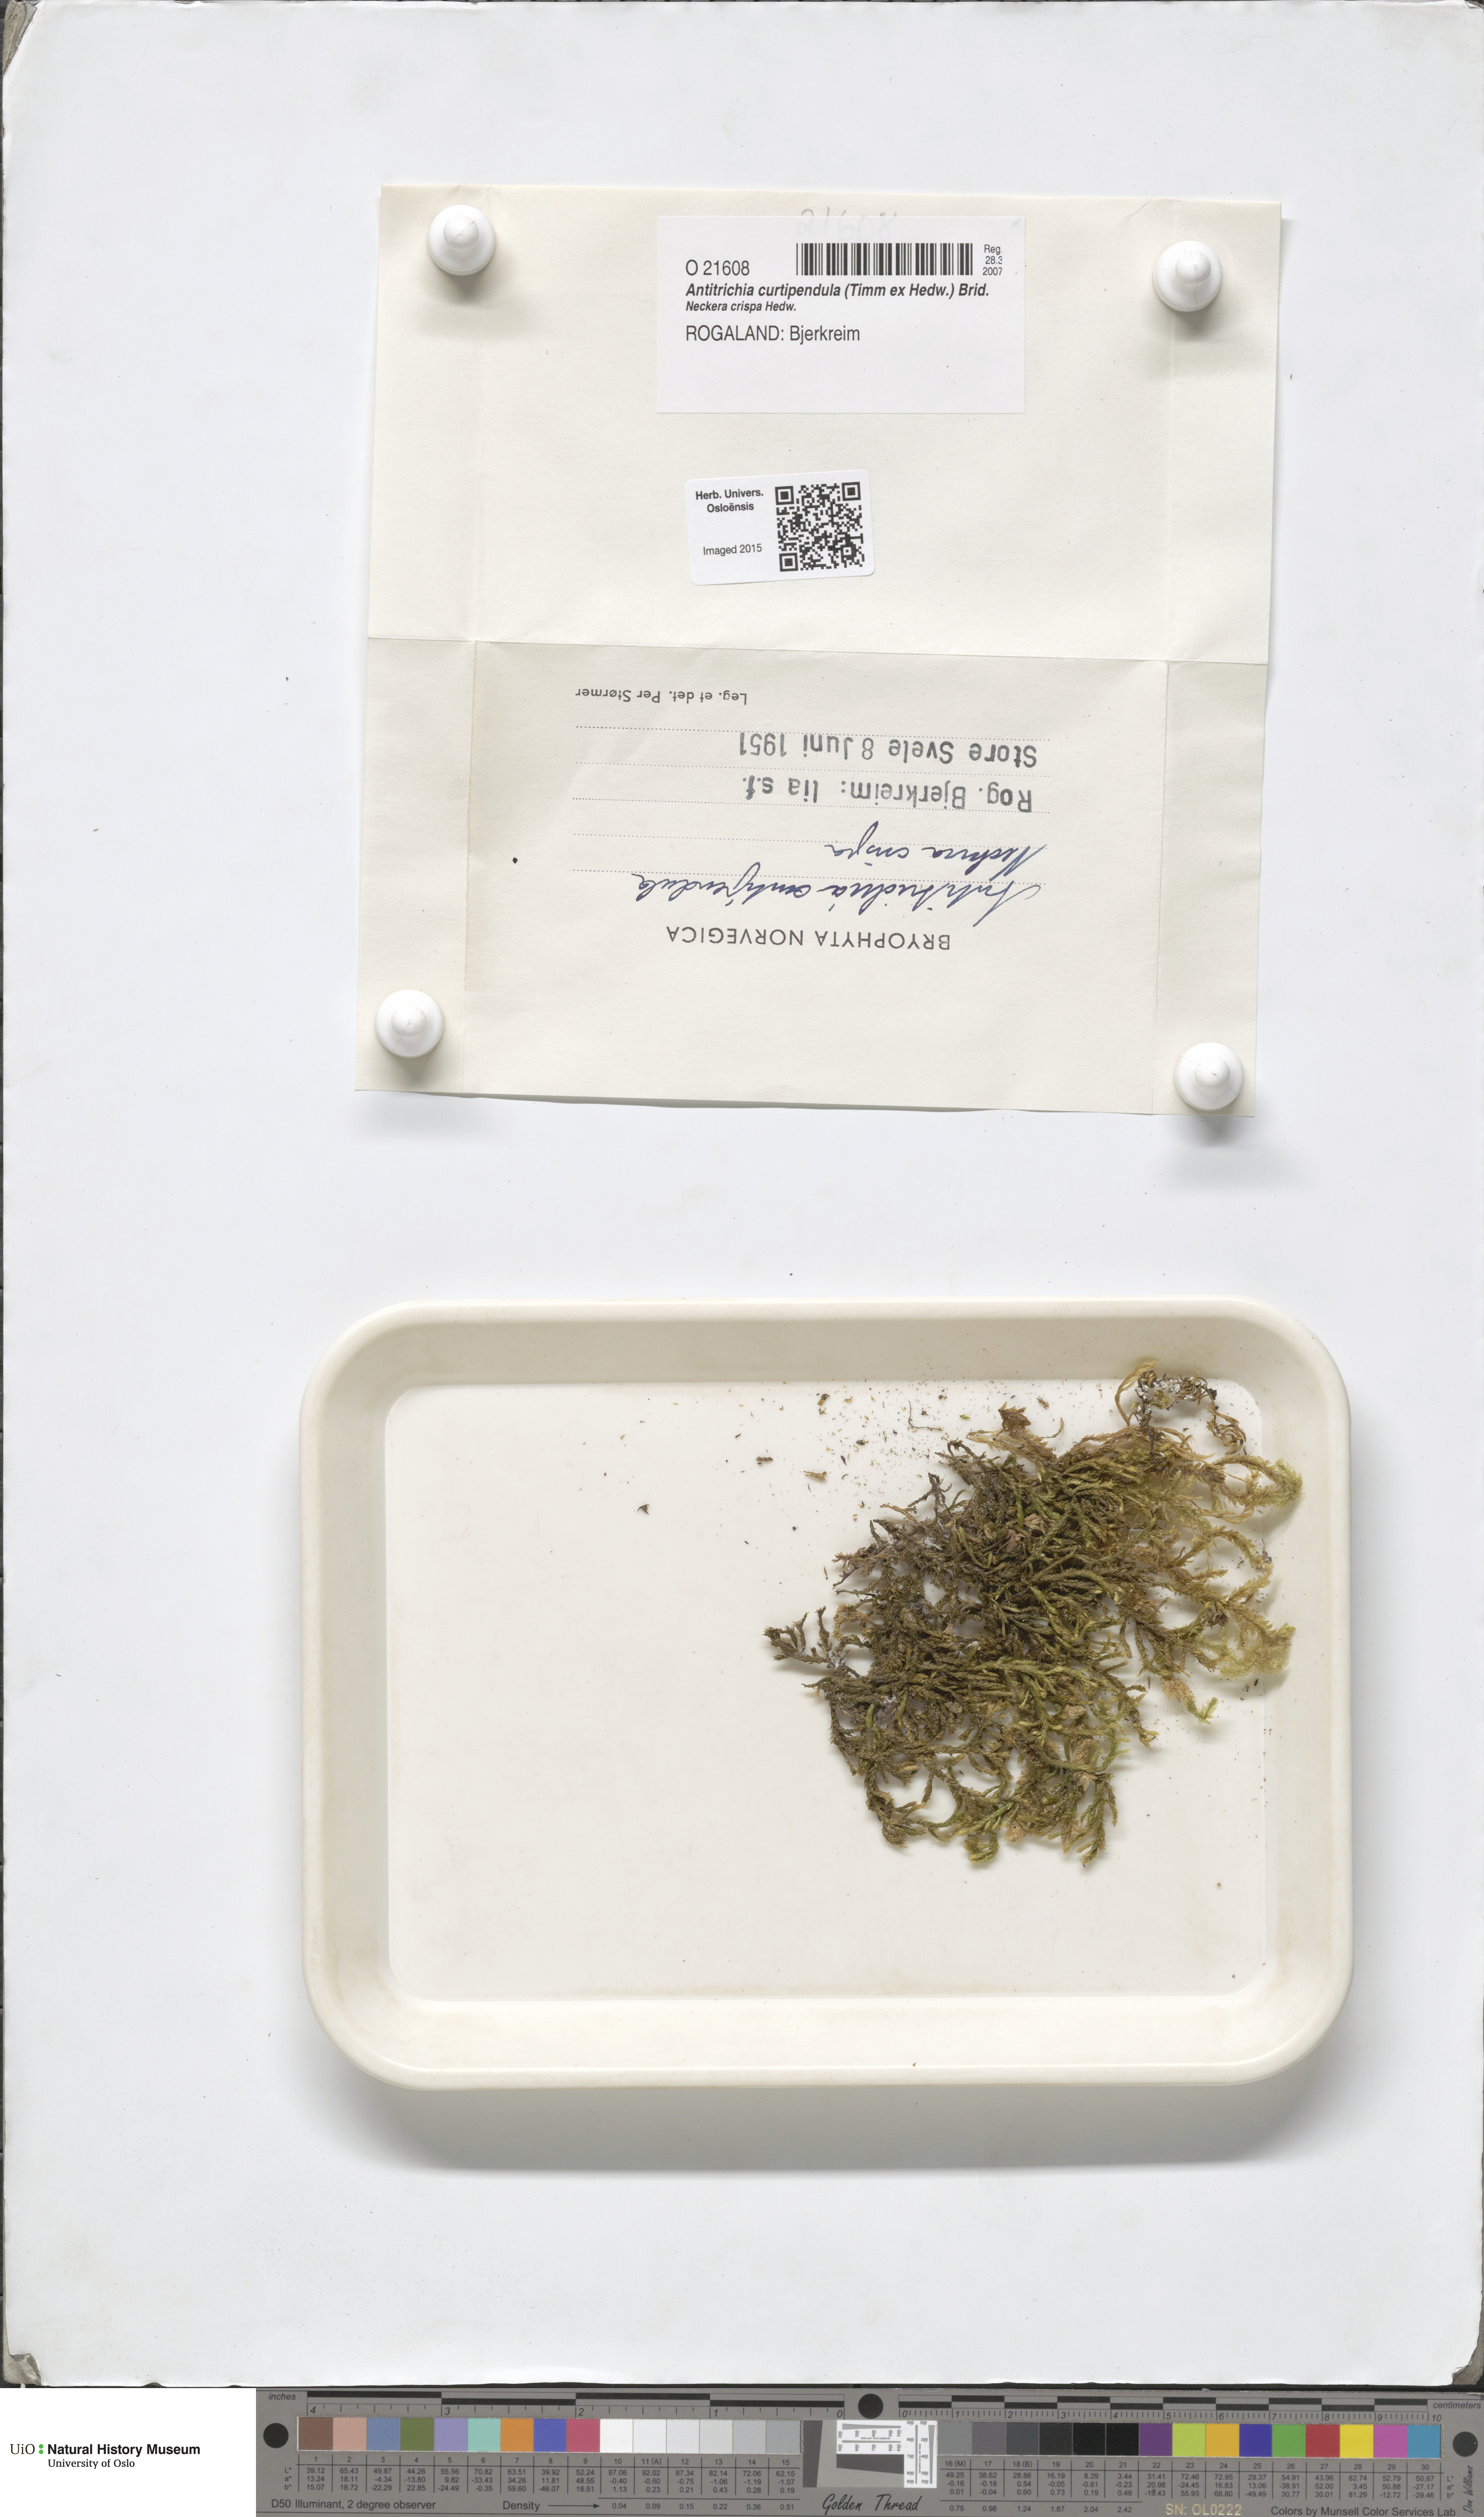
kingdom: Plantae
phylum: Bryophyta
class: Bryopsida
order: Hypnales
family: Antitrichiaceae
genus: Antitrichia
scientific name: Antitrichia curtipendula
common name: Pendulous wing-moss
